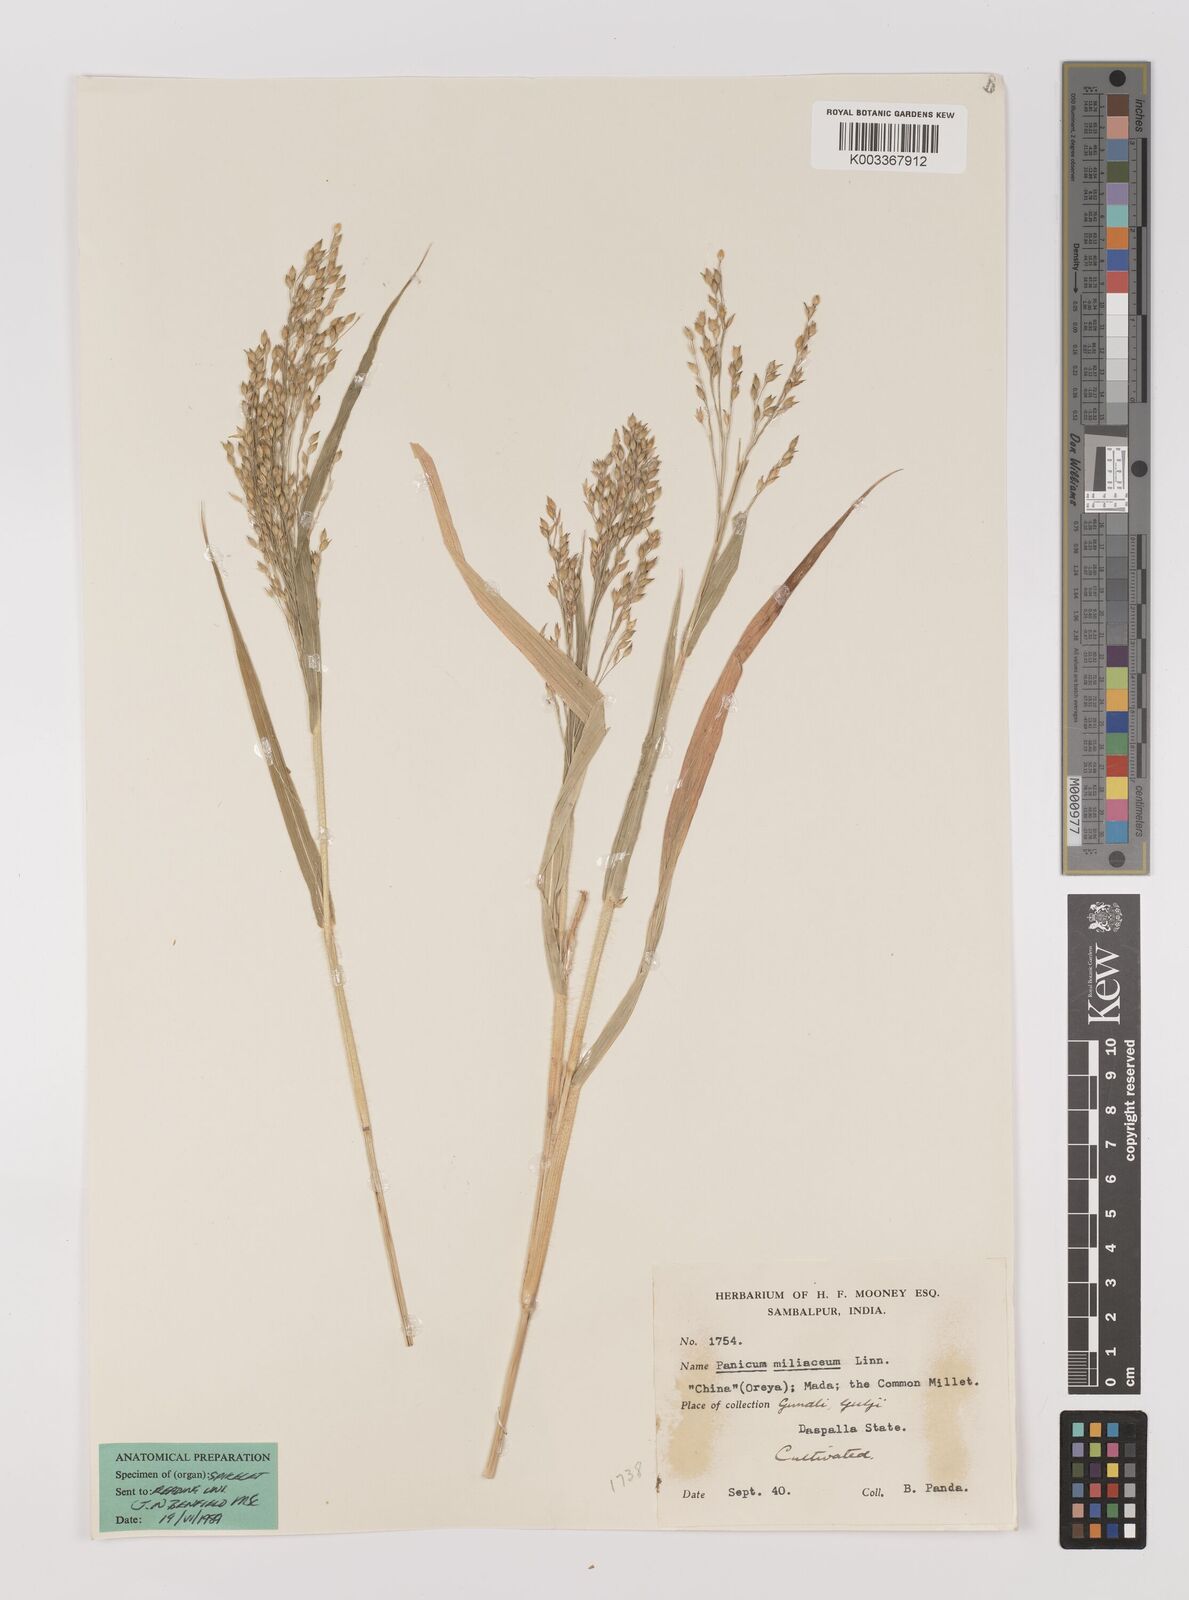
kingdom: Plantae
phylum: Tracheophyta
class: Liliopsida
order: Poales
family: Poaceae
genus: Panicum
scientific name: Panicum miliaceum
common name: Common millet
